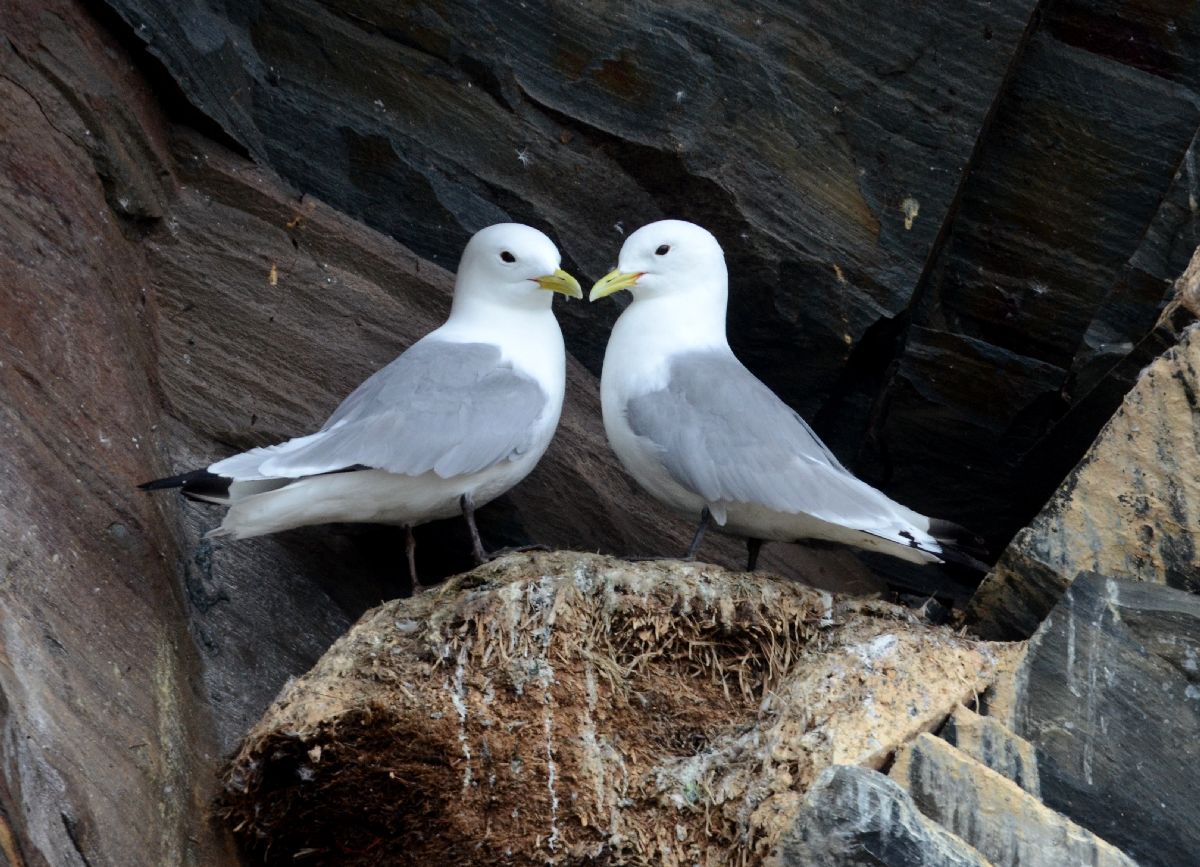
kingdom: Animalia
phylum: Chordata
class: Aves
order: Charadriiformes
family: Laridae
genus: Rissa
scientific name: Rissa tridactyla
